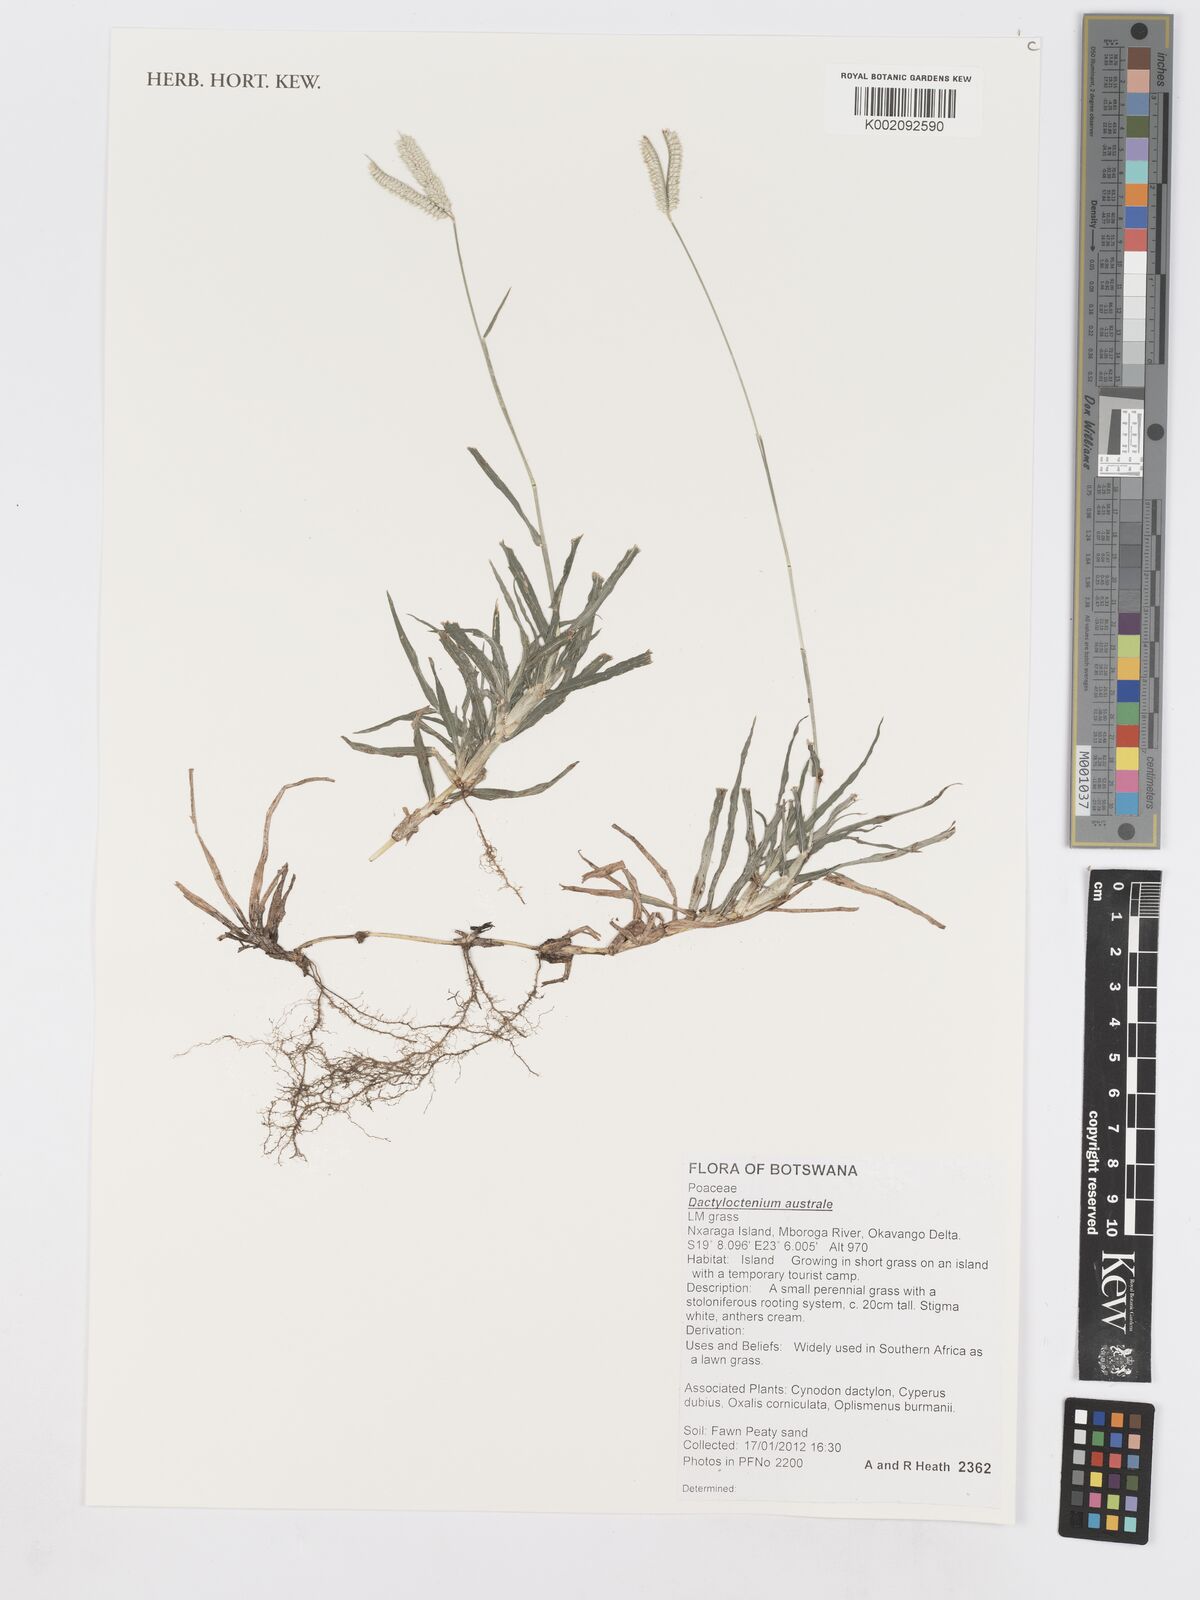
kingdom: Plantae
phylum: Tracheophyta
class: Liliopsida
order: Poales
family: Poaceae
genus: Dactyloctenium
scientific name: Dactyloctenium australe
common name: Durban grass
